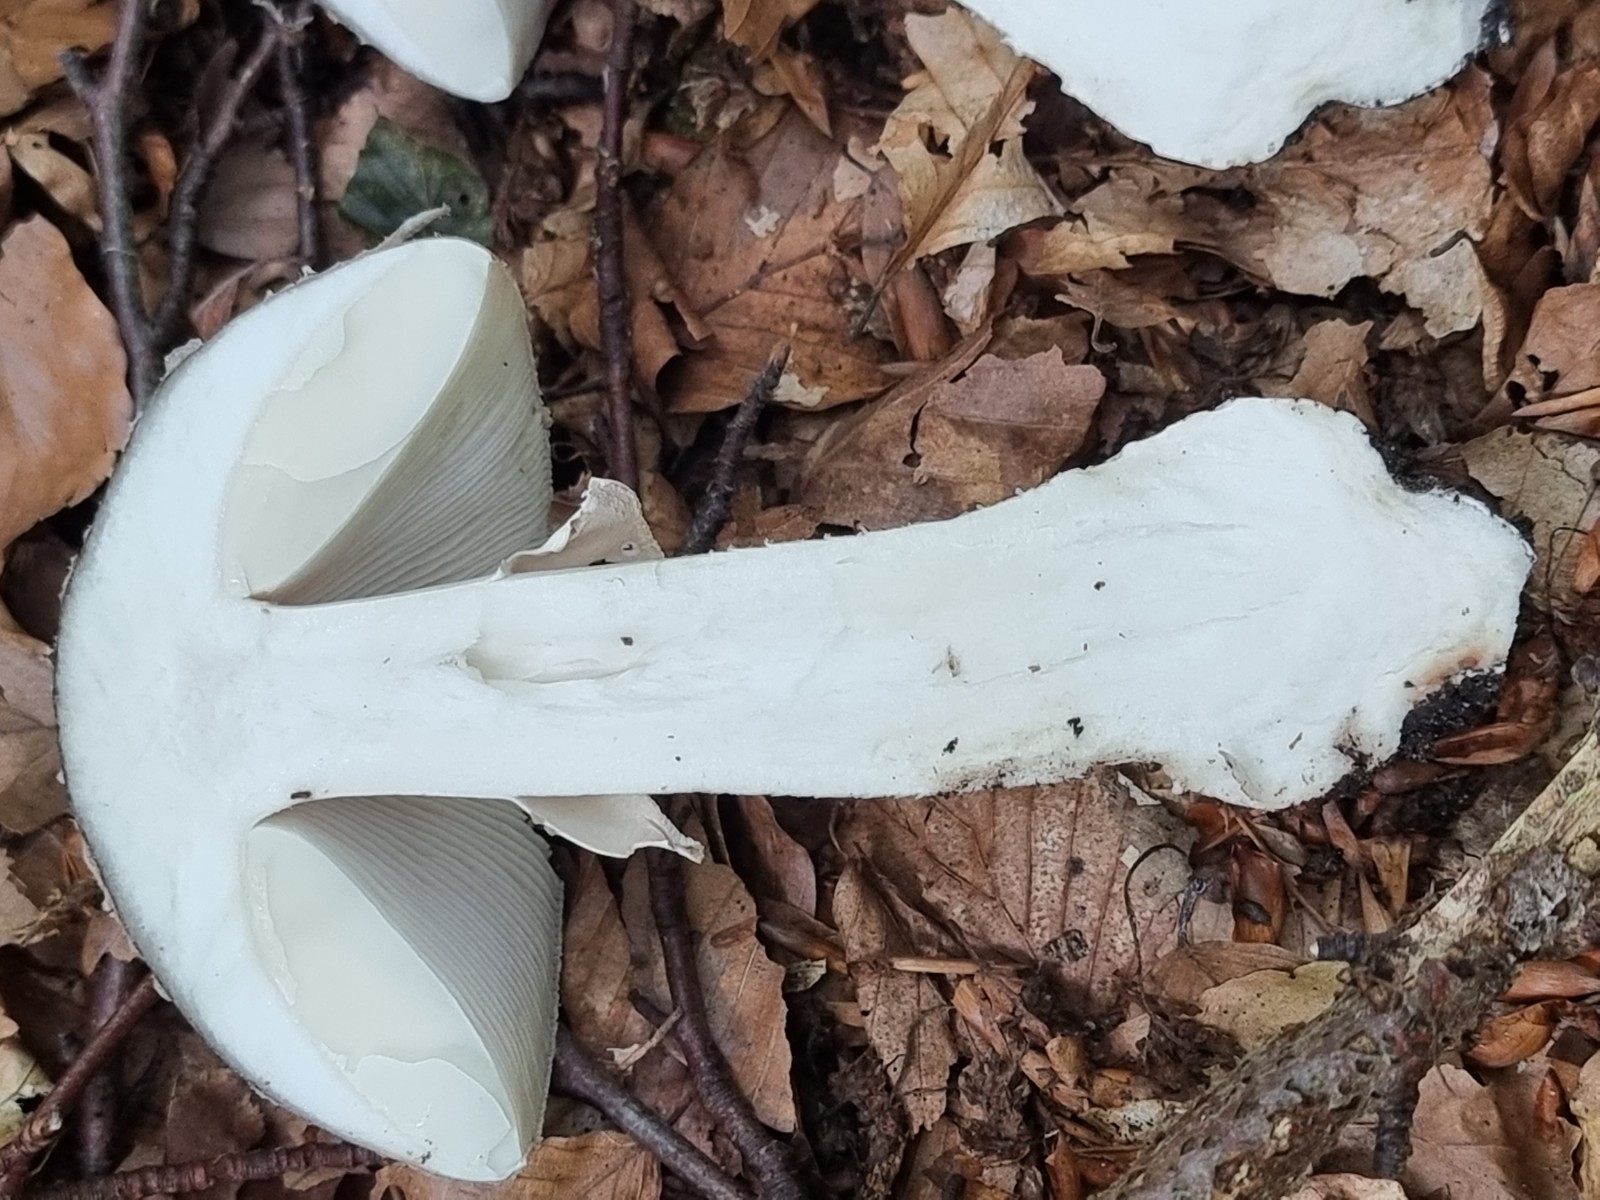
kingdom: Fungi
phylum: Basidiomycota
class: Agaricomycetes
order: Agaricales
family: Amanitaceae
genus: Amanita
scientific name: Amanita
